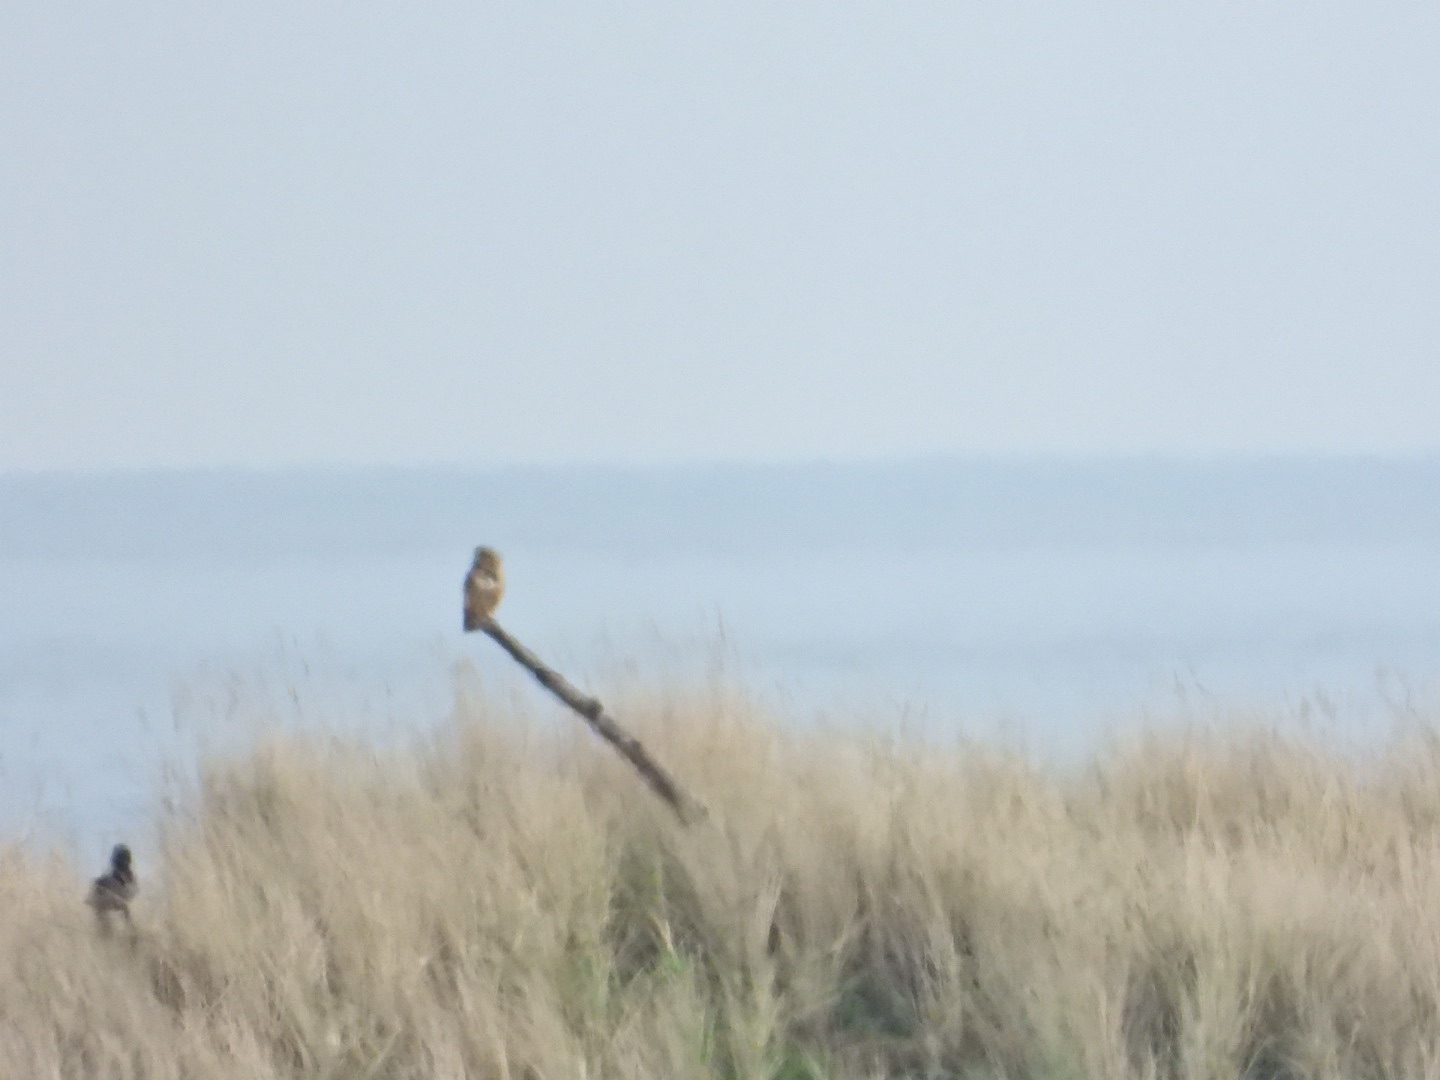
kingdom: Animalia
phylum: Chordata
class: Aves
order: Strigiformes
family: Strigidae
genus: Asio
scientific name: Asio flammeus
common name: Mosehornugle
